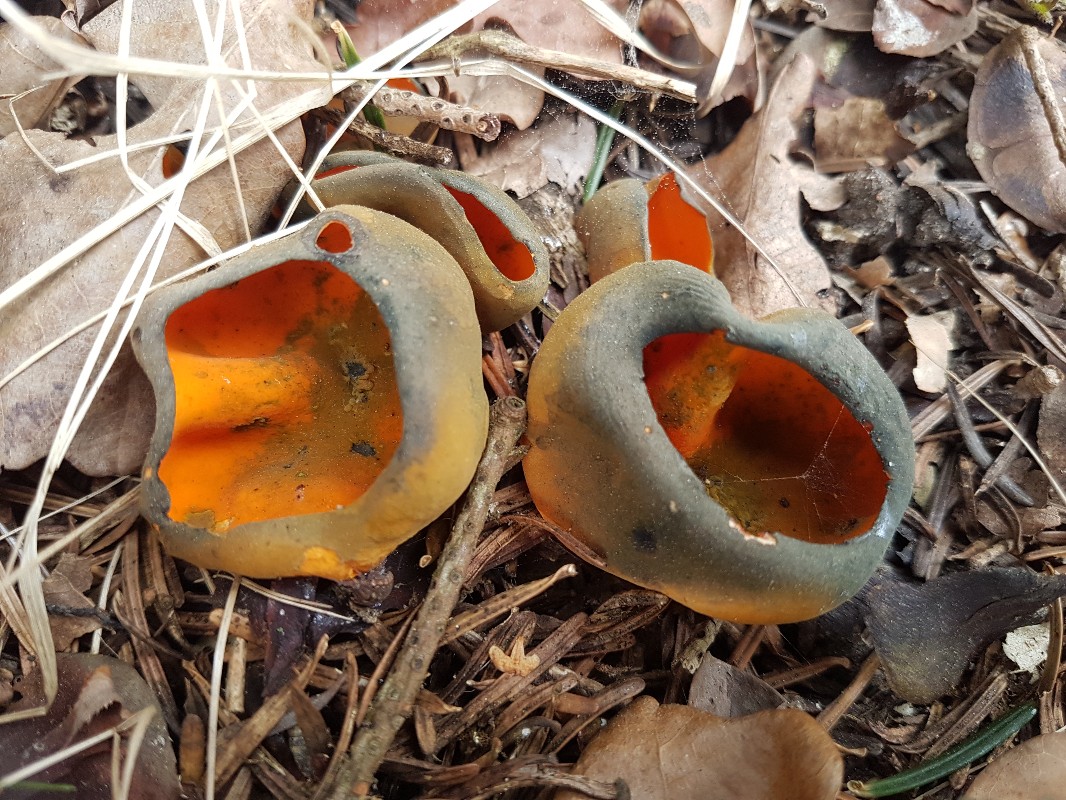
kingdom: Fungi
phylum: Ascomycota
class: Pezizomycetes
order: Pezizales
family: Caloscyphaceae
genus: Caloscypha
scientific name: Caloscypha fulgens
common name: jadebæger
